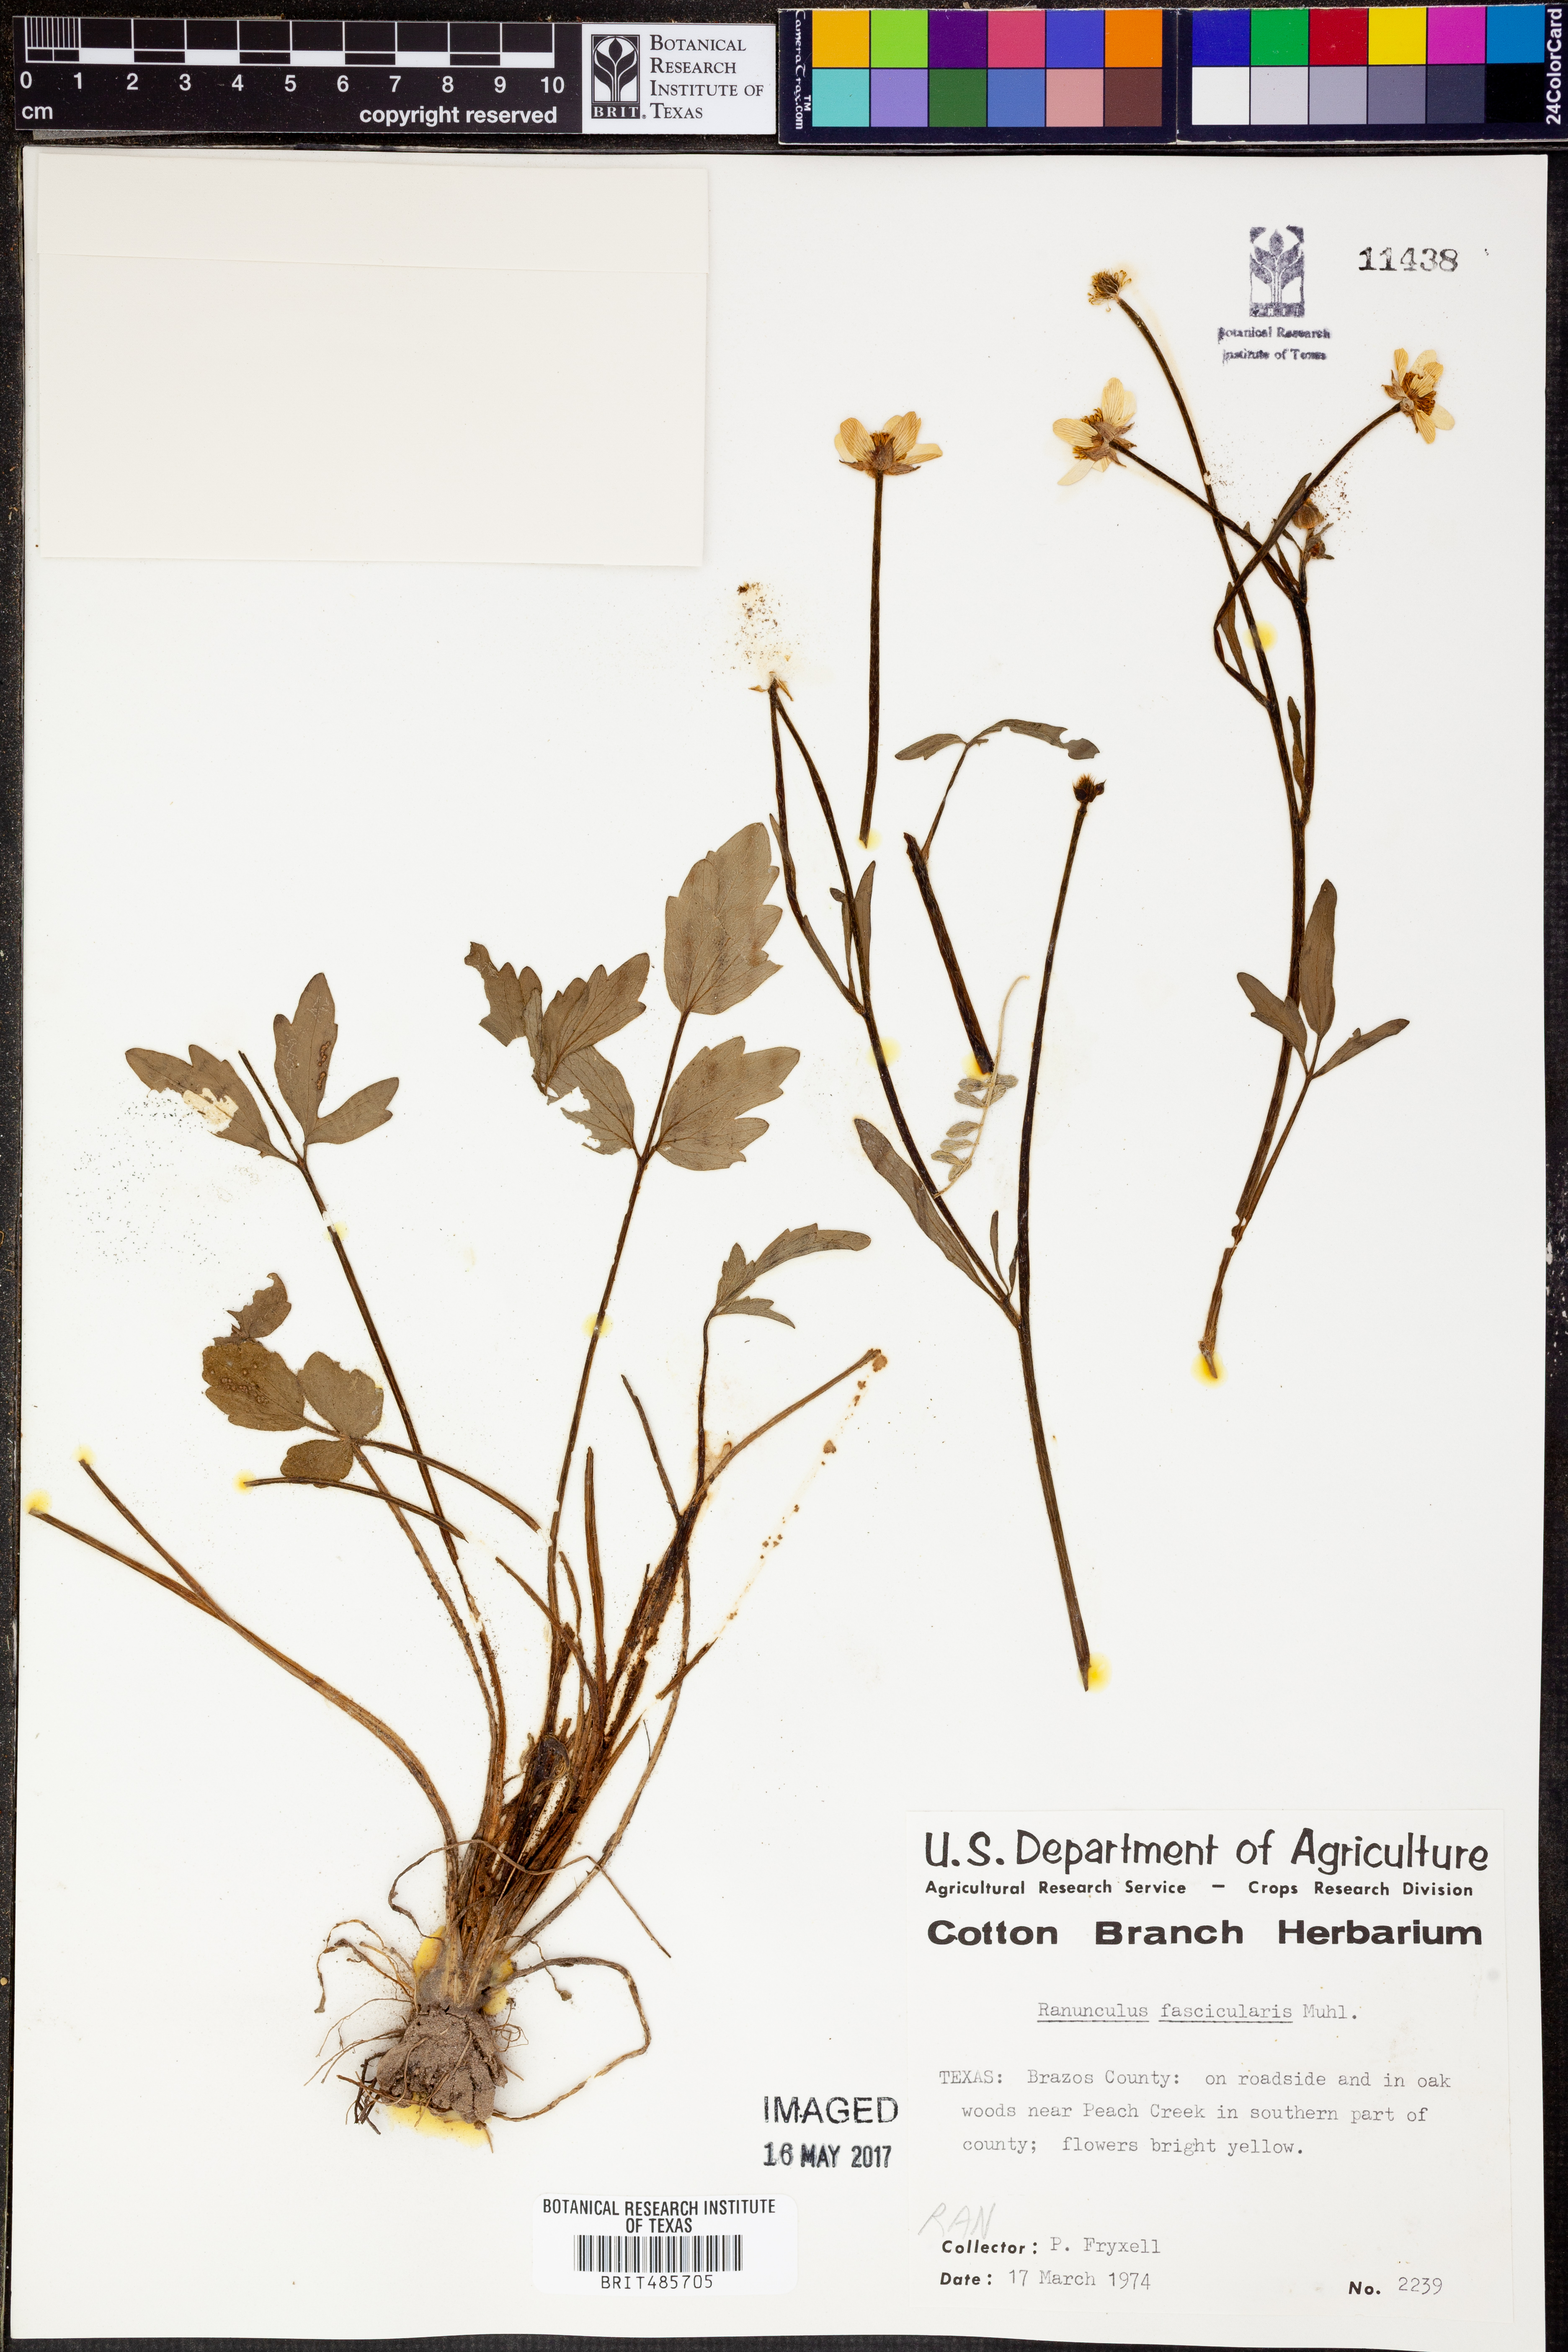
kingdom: Plantae
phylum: Tracheophyta
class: Magnoliopsida
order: Ranunculales
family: Ranunculaceae
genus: Ranunculus
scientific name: Ranunculus fascicularis
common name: Early buttercup
